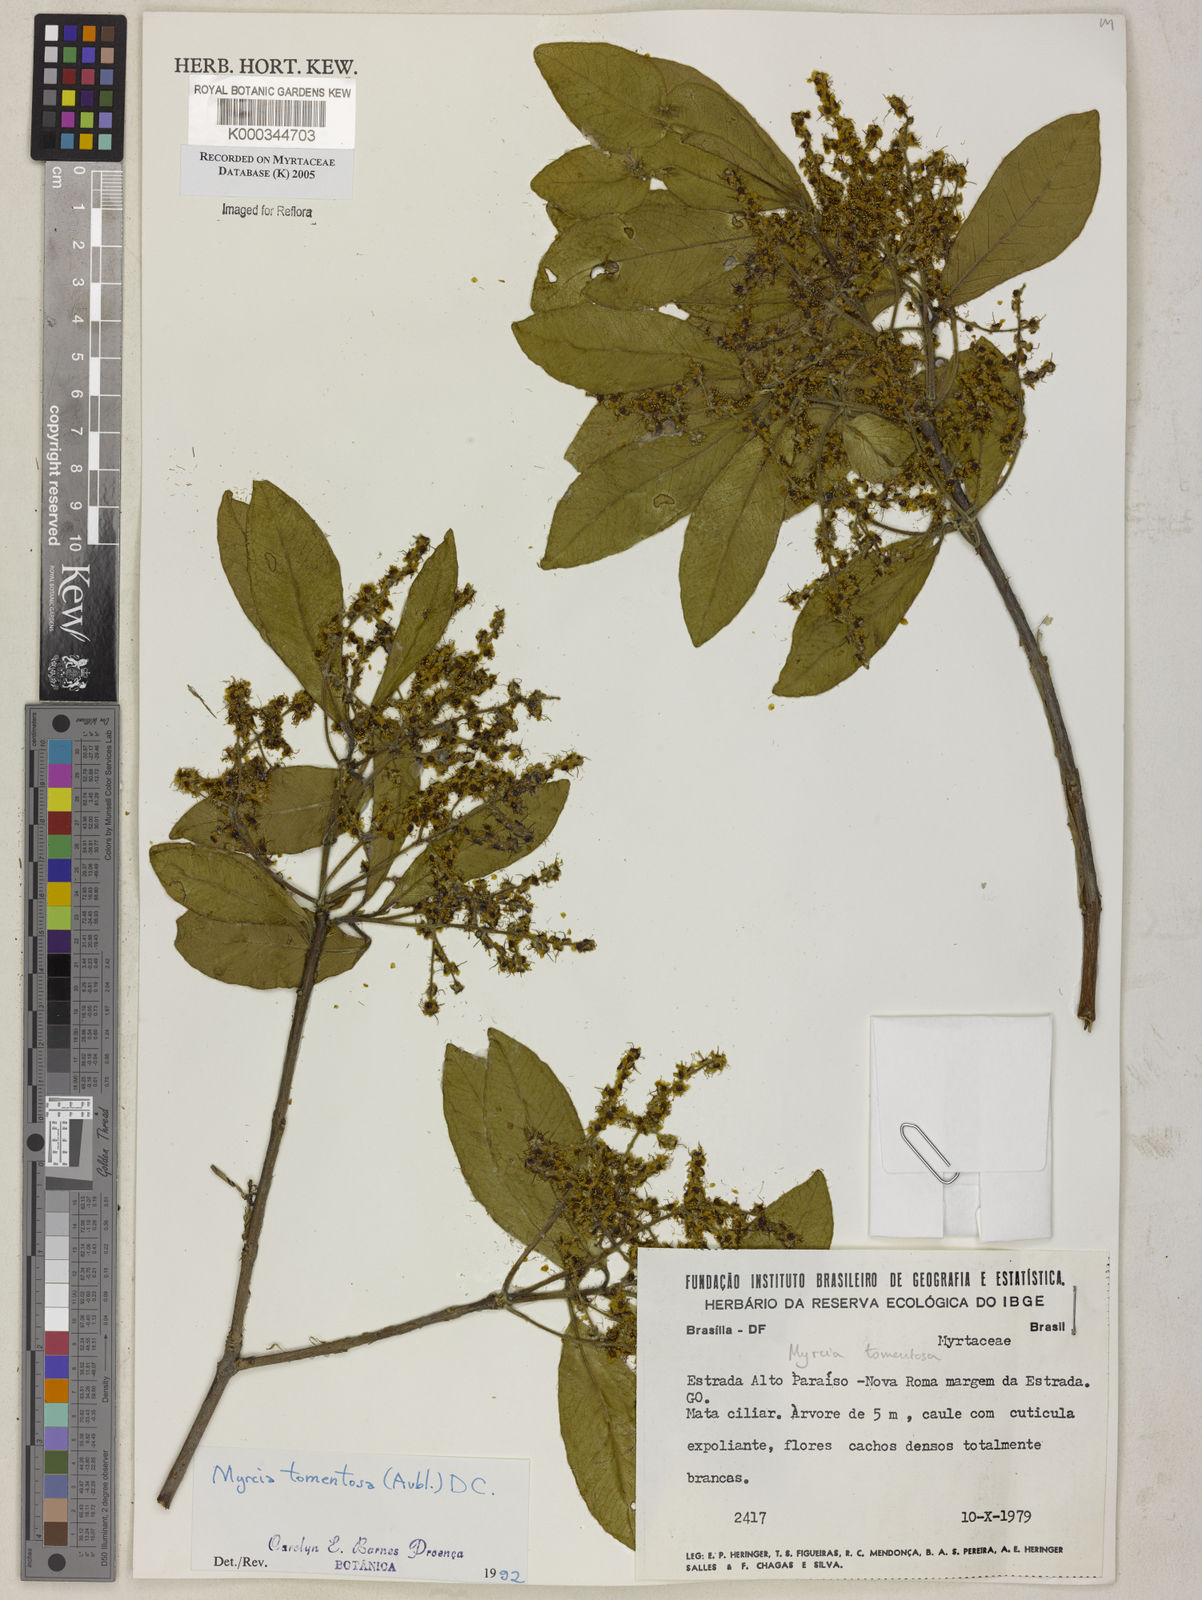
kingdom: Plantae
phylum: Tracheophyta
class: Magnoliopsida
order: Myrtales
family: Myrtaceae
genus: Myrcia
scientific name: Myrcia tomentosa
